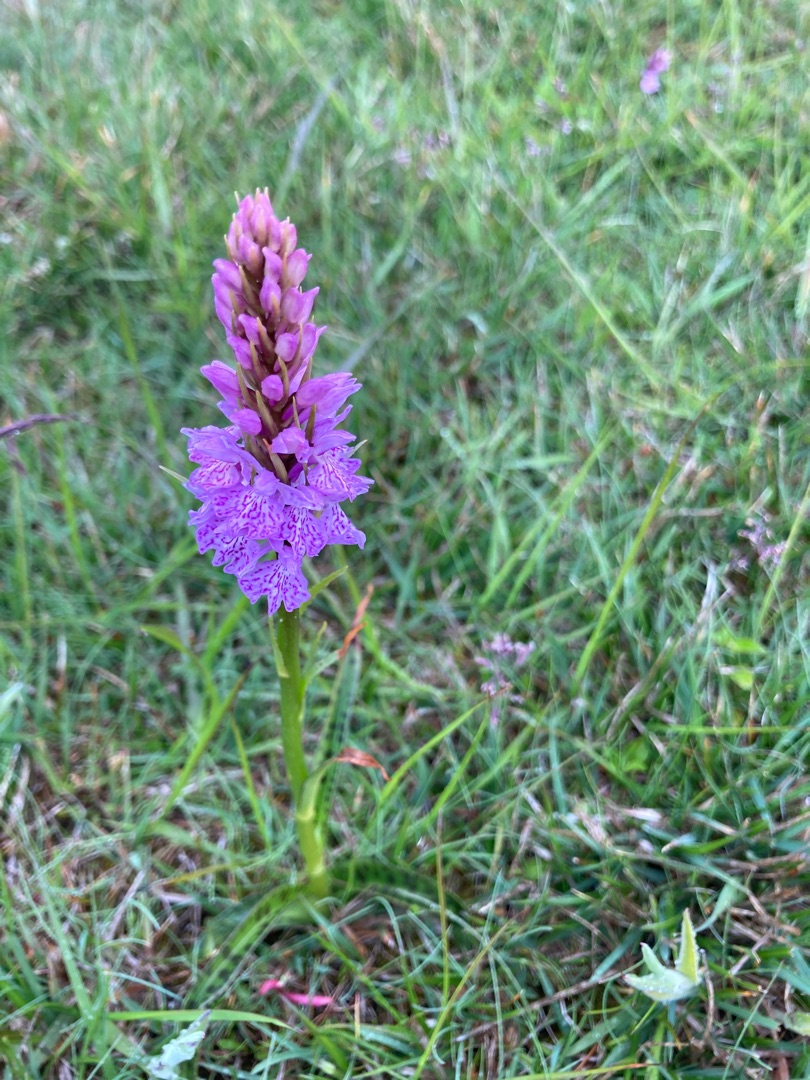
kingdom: Plantae
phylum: Tracheophyta
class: Liliopsida
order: Asparagales
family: Orchidaceae
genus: Dactylorhiza
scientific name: Dactylorhiza maculata
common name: Plettet gøgeurt
